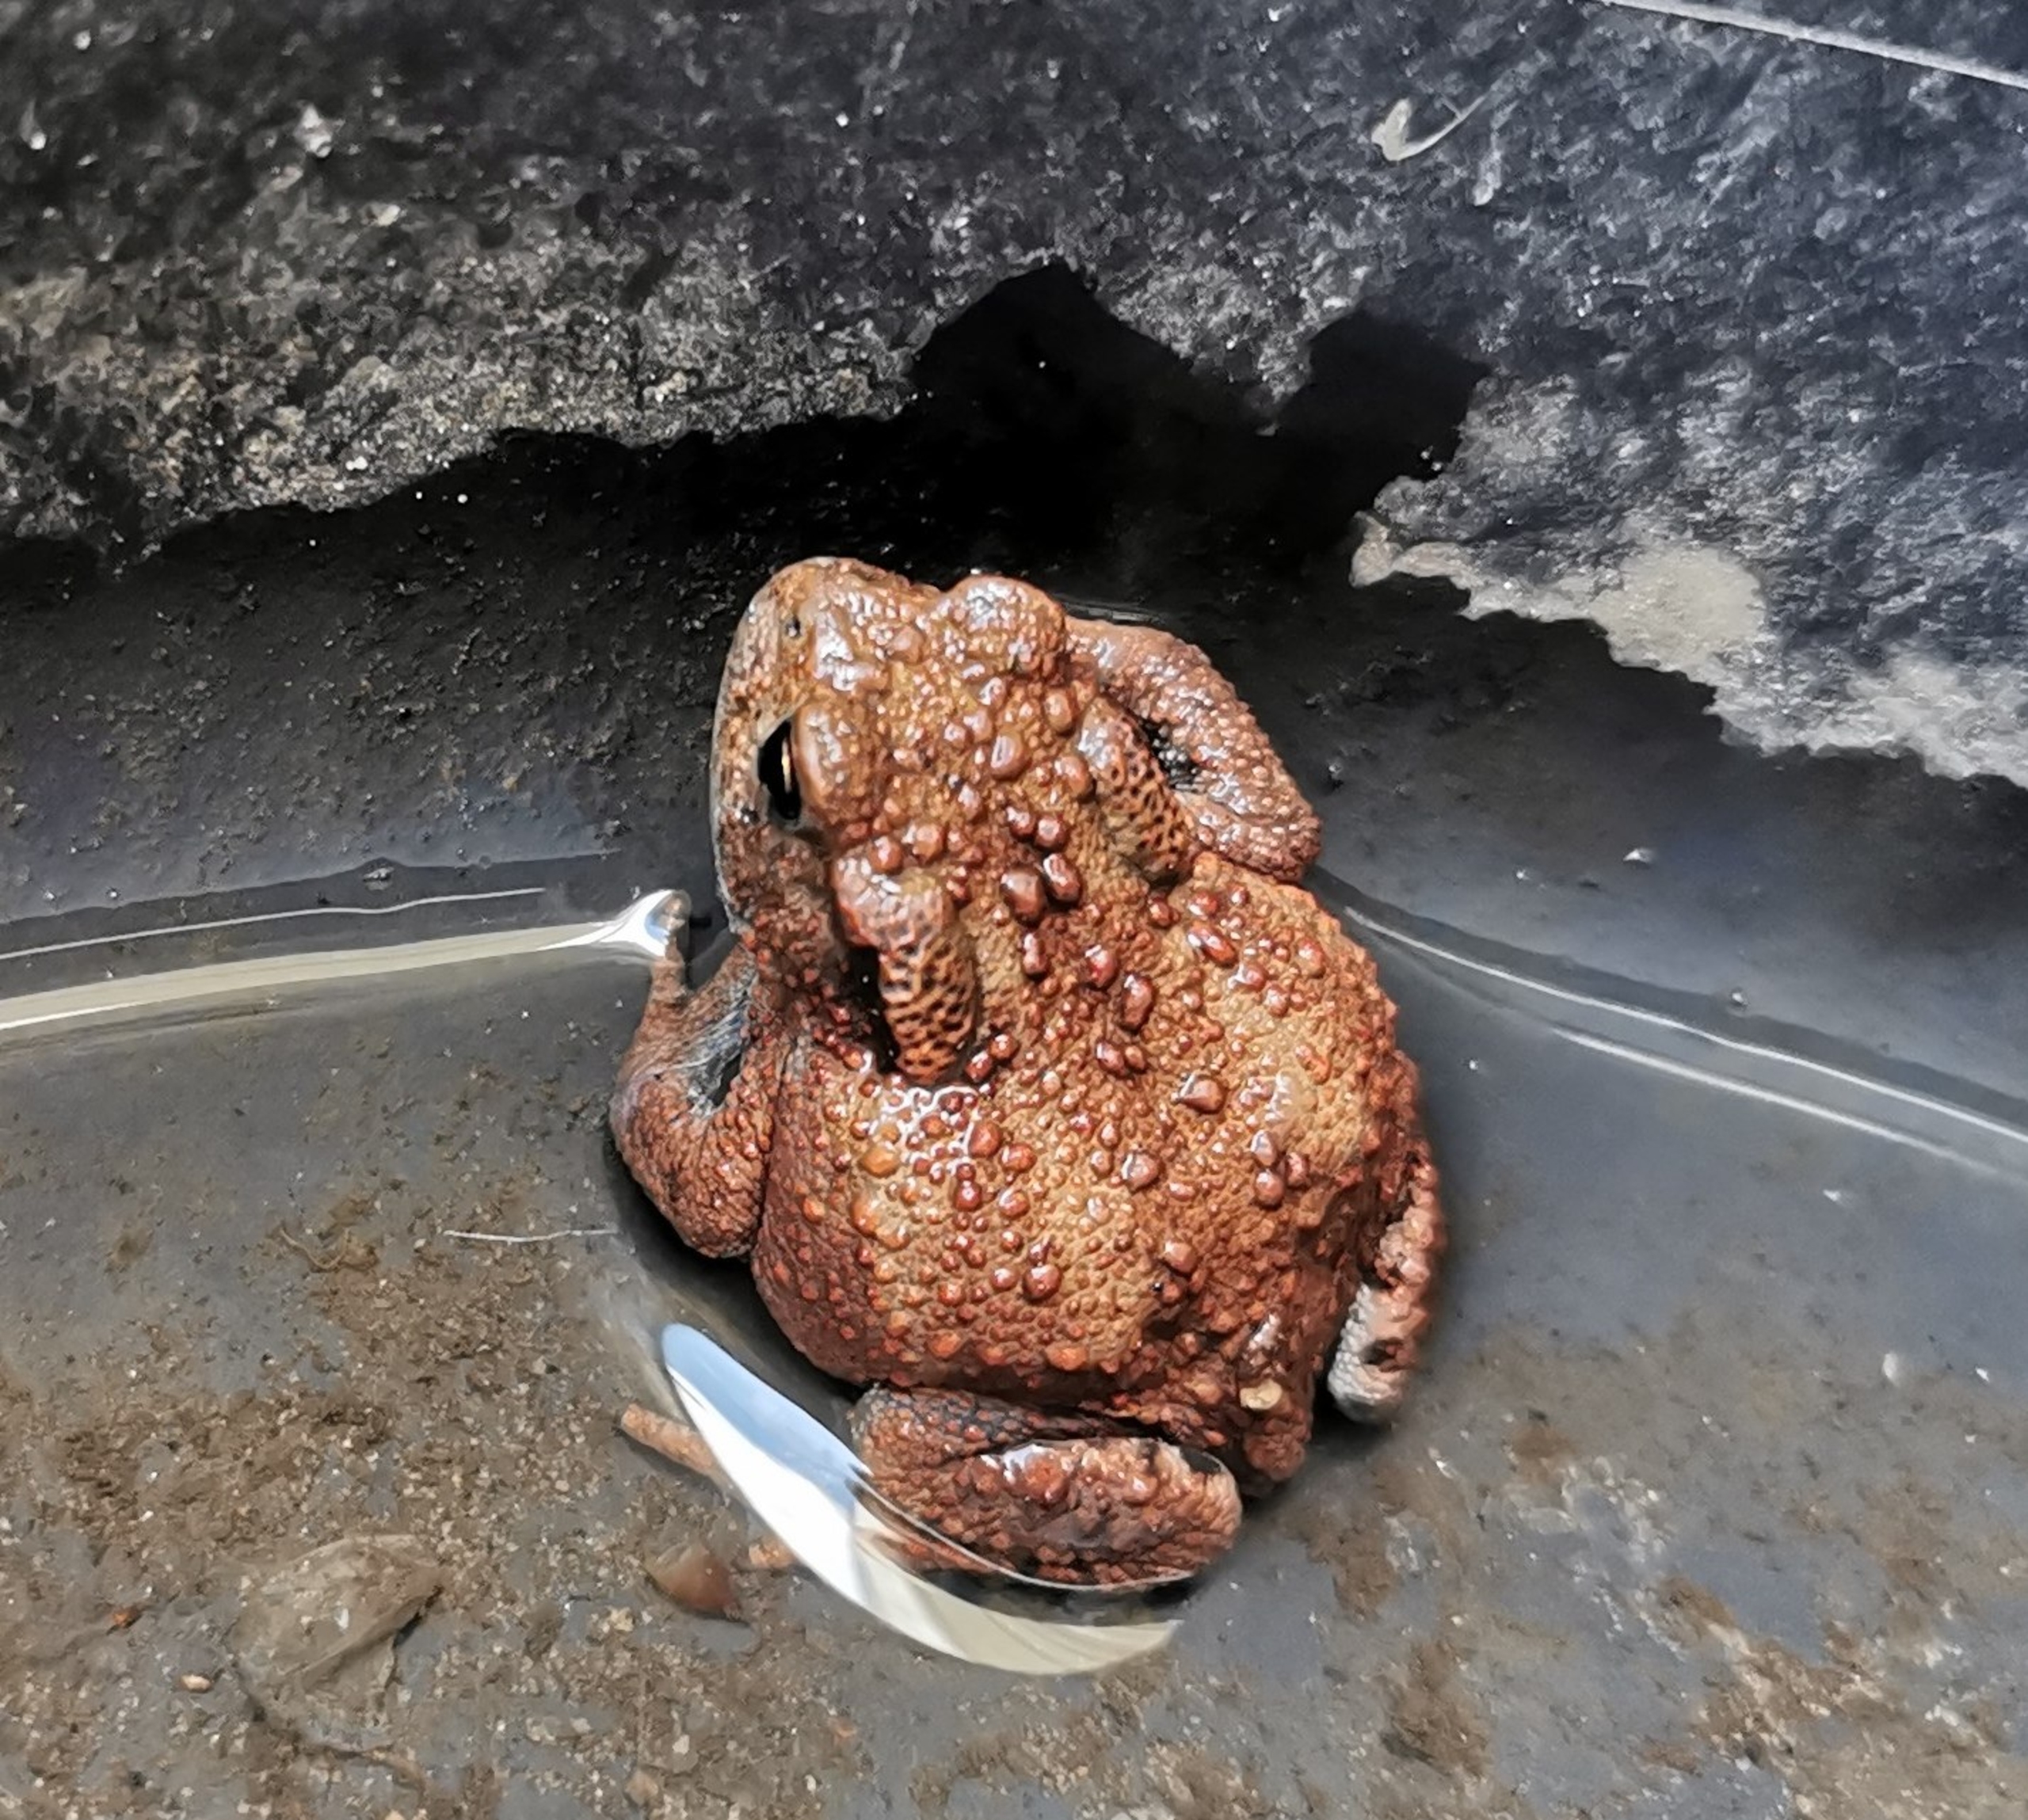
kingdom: Animalia
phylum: Chordata
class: Amphibia
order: Anura
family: Bufonidae
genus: Bufo
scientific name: Bufo bufo
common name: Skrubtudse
